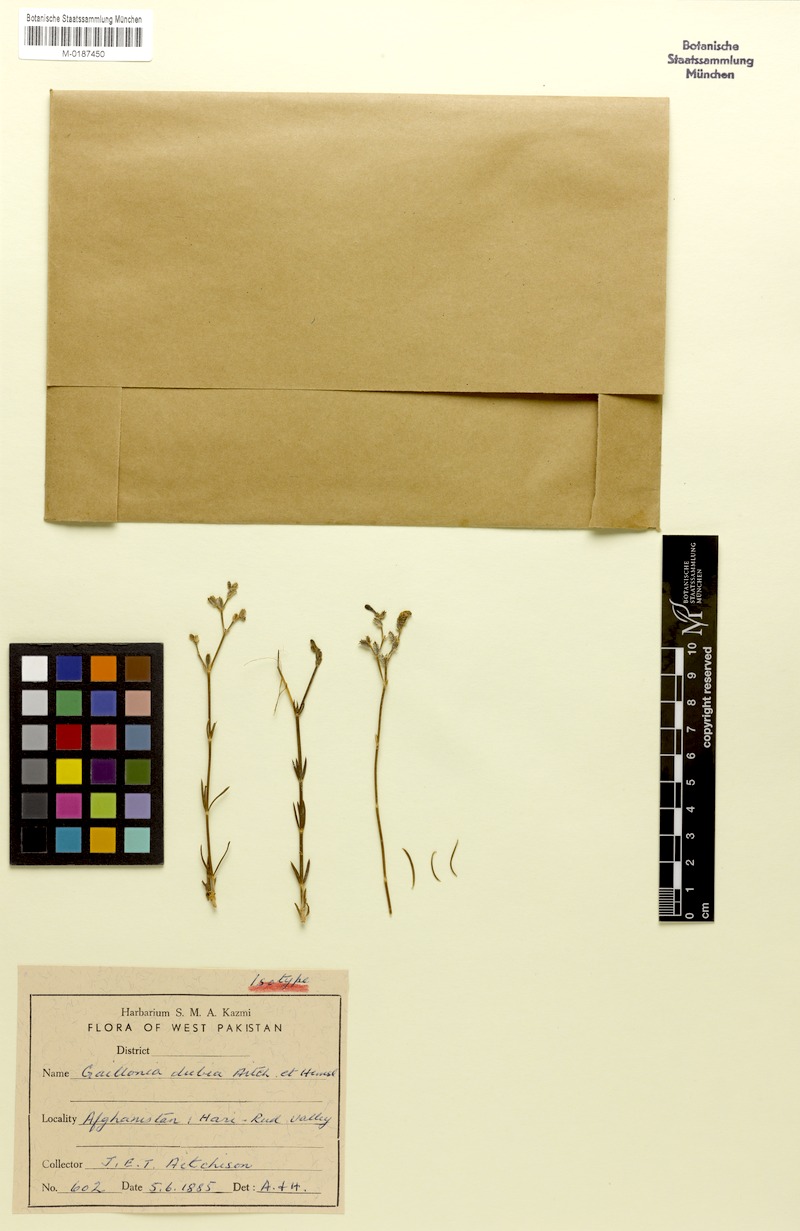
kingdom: Plantae
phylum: Tracheophyta
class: Magnoliopsida
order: Gentianales
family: Rubiaceae
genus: Plocama
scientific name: Plocama dubia
